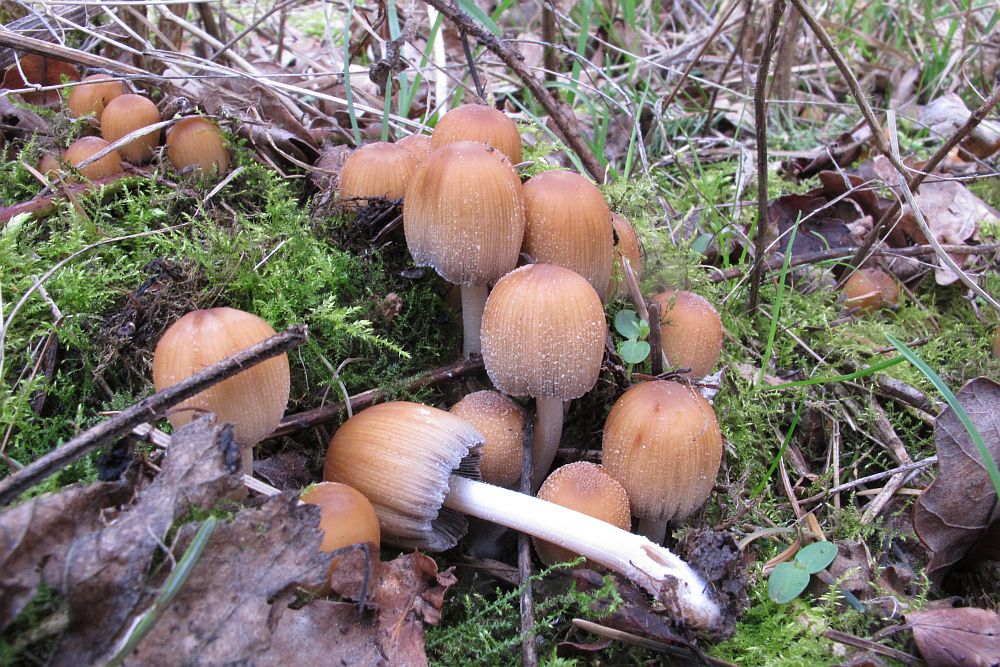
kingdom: Fungi
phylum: Basidiomycota
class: Agaricomycetes
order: Agaricales
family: Psathyrellaceae
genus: Coprinellus
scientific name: Coprinellus micaceus
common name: glimmer-blækhat
